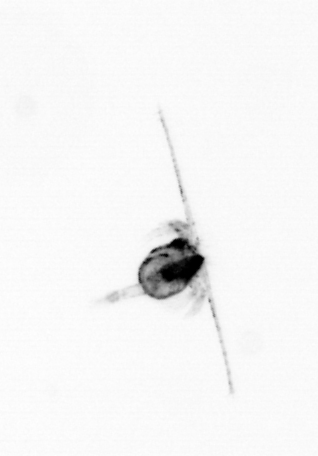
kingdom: Animalia
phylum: Arthropoda
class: Copepoda
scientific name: Copepoda
